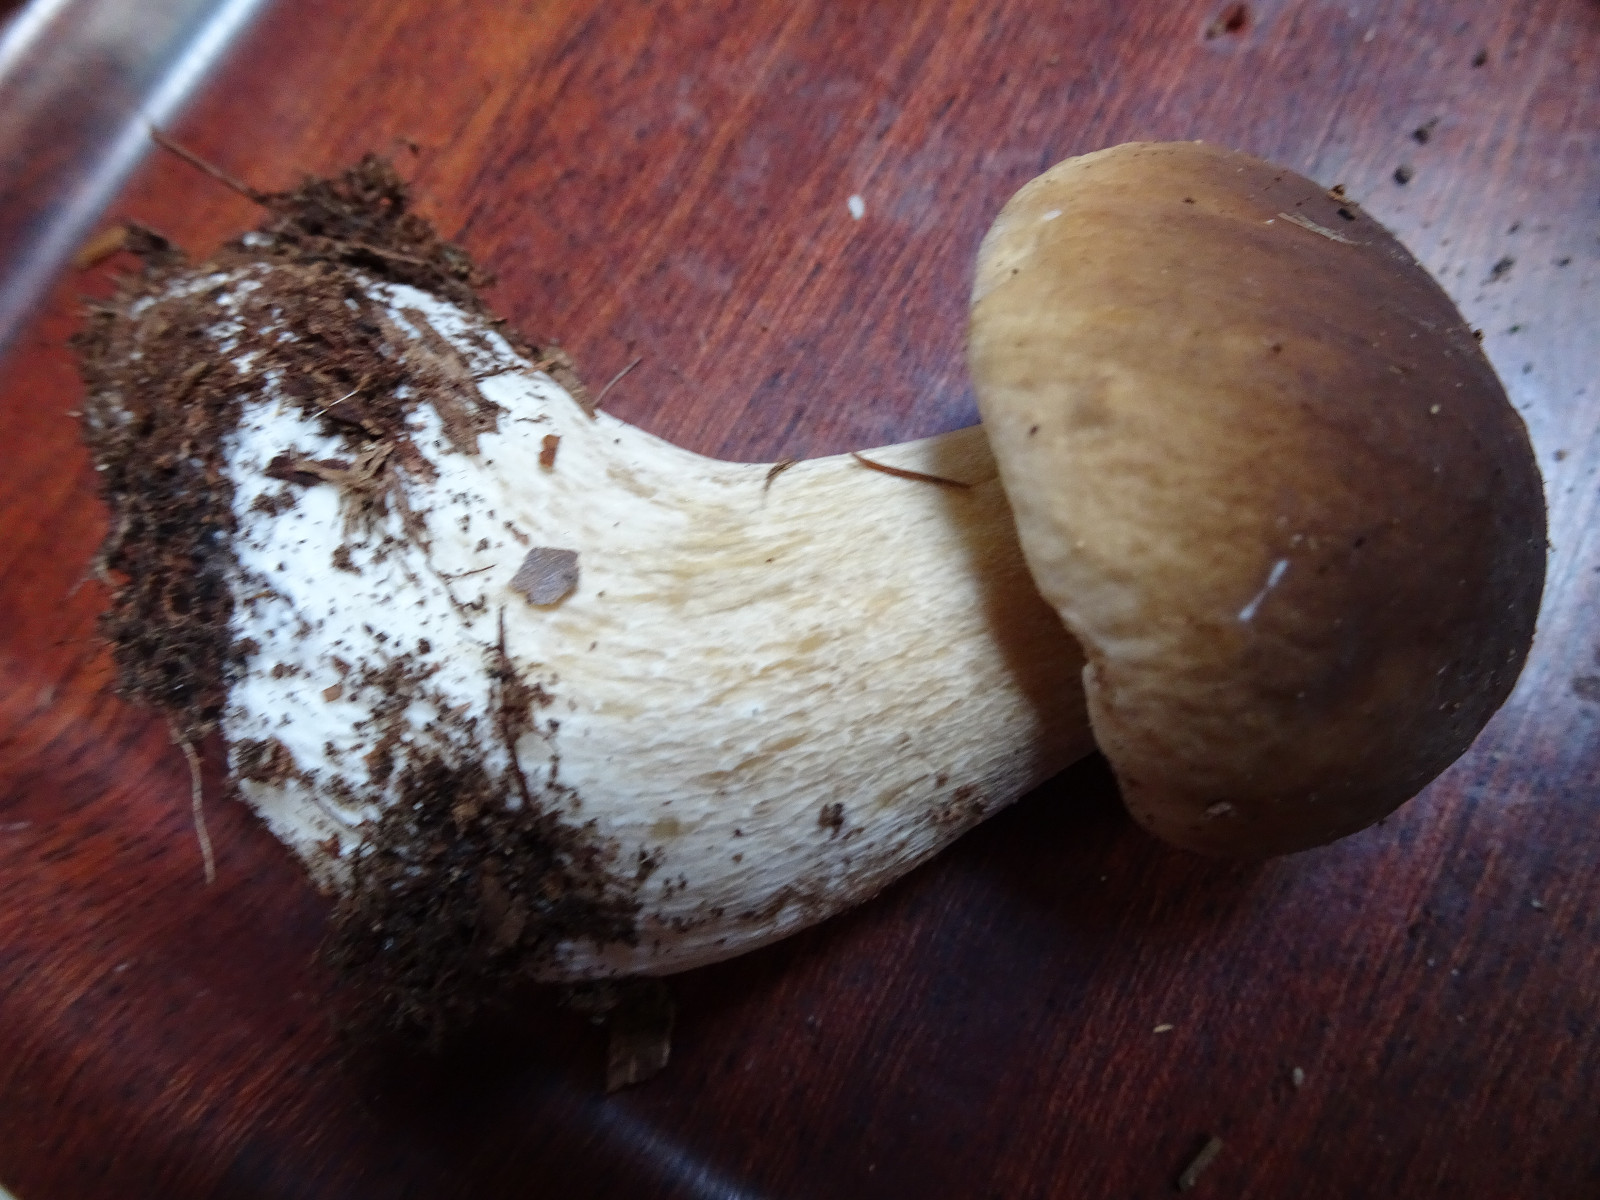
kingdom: Fungi
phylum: Basidiomycota
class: Agaricomycetes
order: Boletales
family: Boletaceae
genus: Boletus
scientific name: Boletus edulis
